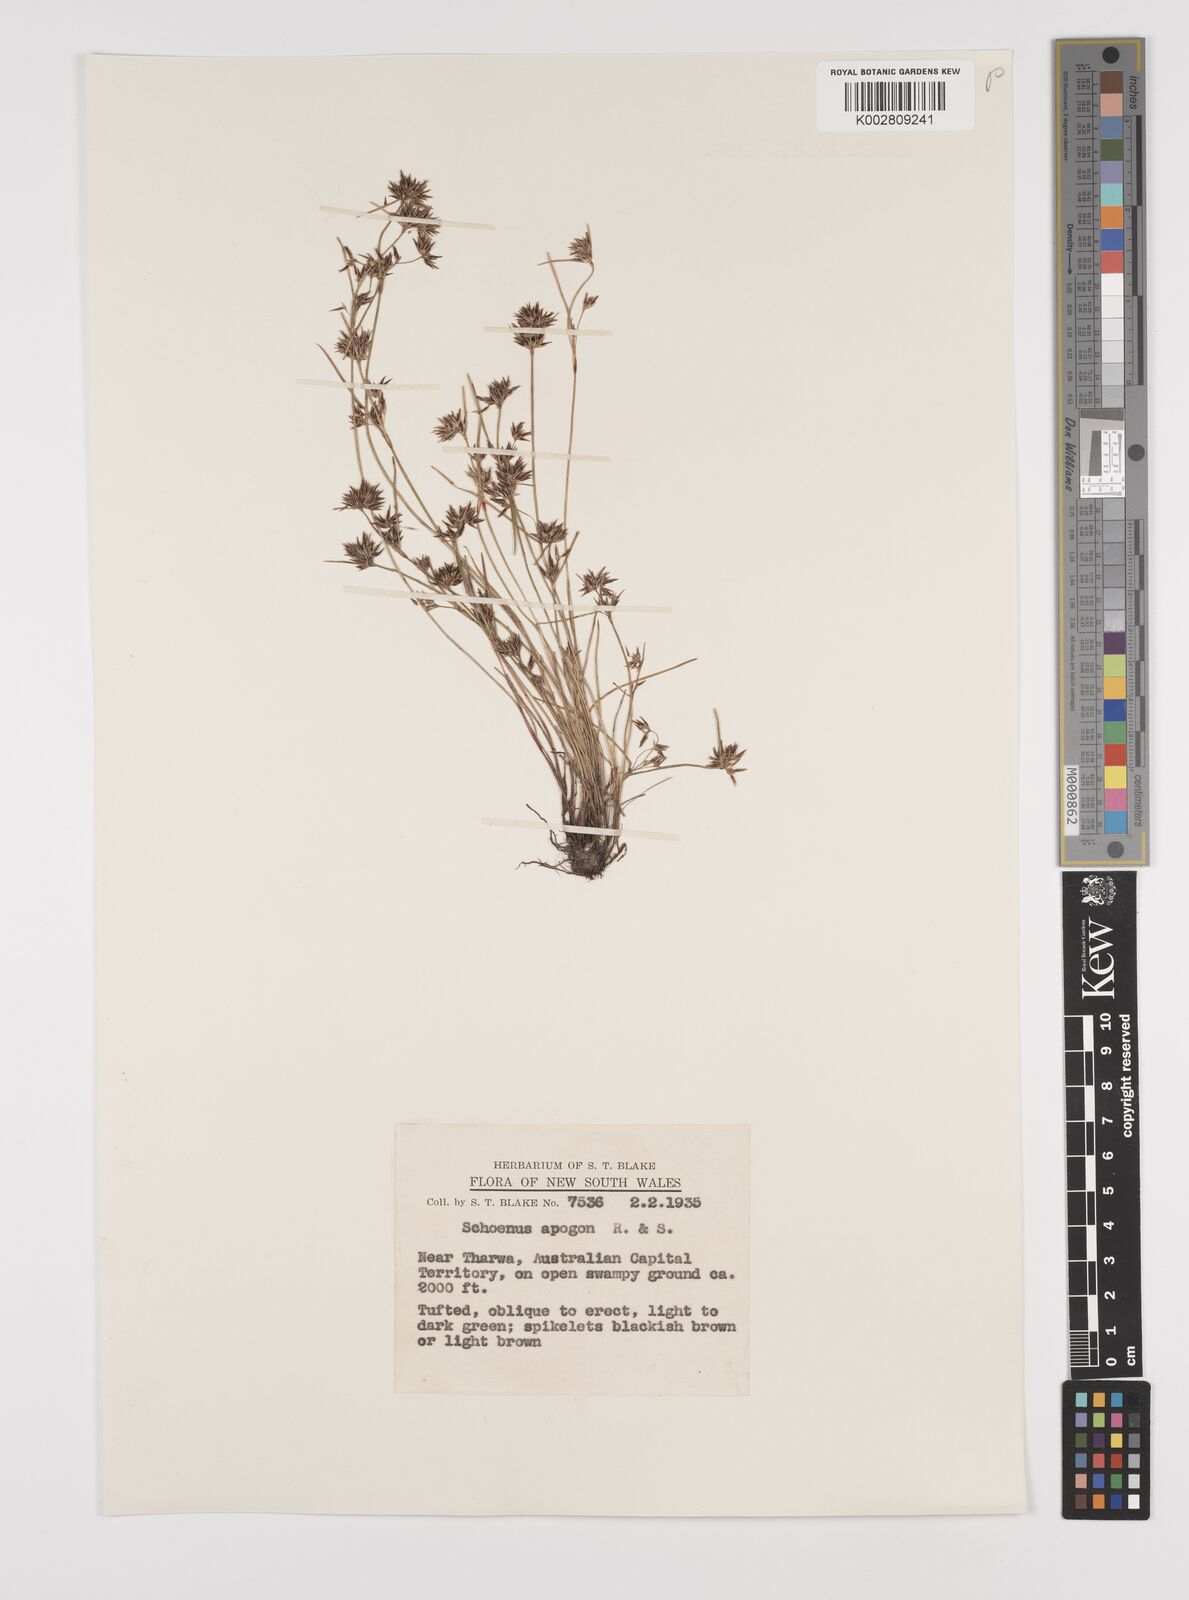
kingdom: Plantae
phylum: Tracheophyta
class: Liliopsida
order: Poales
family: Cyperaceae
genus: Schoenus
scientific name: Schoenus apogon
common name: Smooth bogrush
